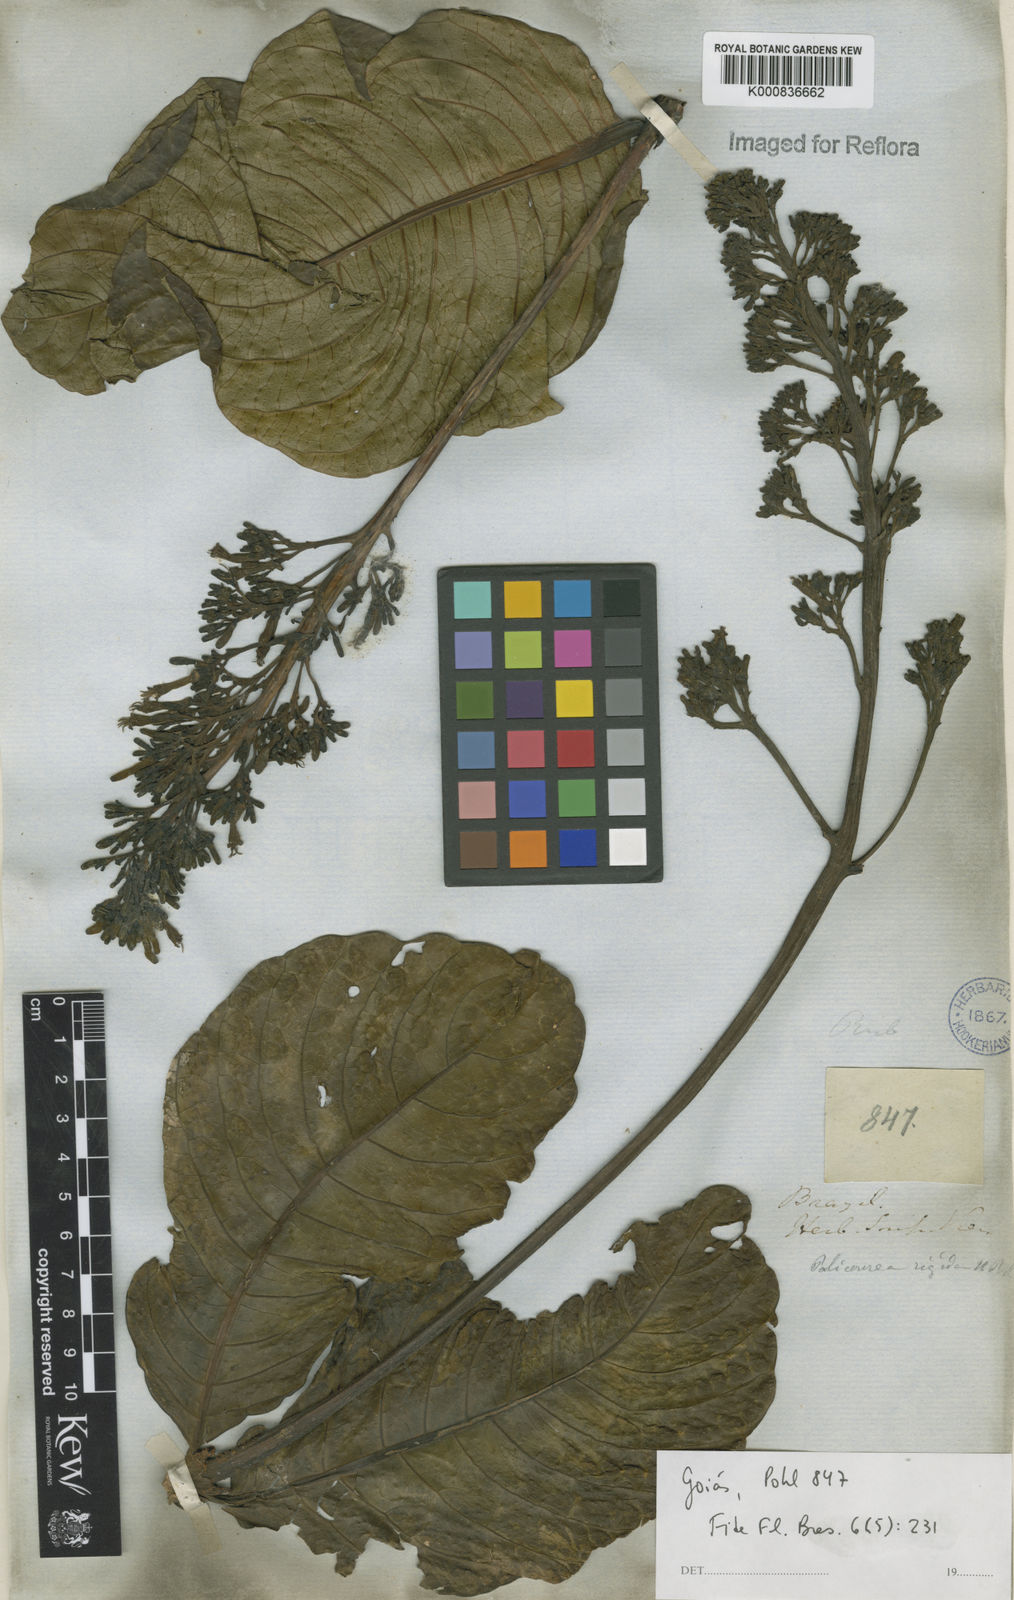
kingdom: Plantae
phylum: Tracheophyta
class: Magnoliopsida
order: Gentianales
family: Rubiaceae
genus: Palicourea
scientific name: Palicourea rigida
